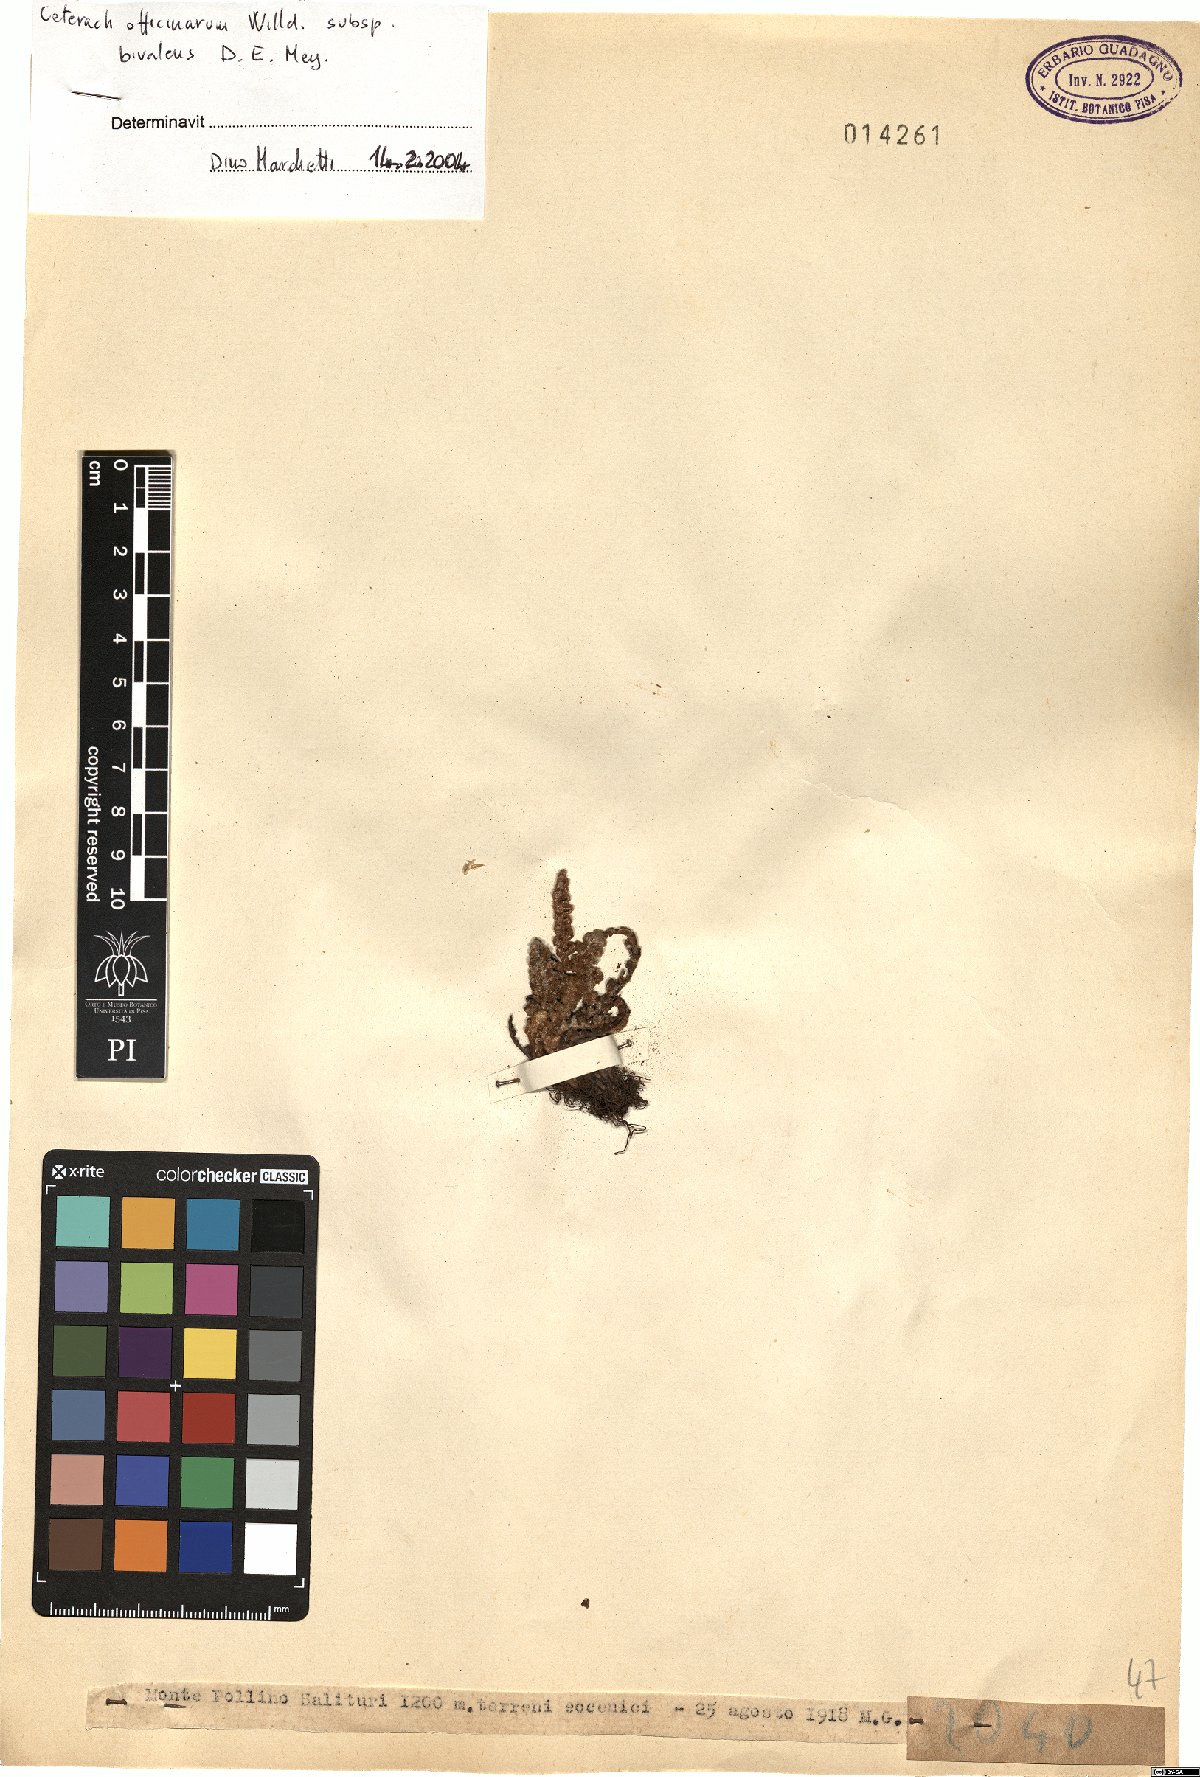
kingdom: Plantae
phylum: Tracheophyta
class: Polypodiopsida
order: Polypodiales
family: Aspleniaceae
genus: Asplenium
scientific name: Asplenium ceterach
